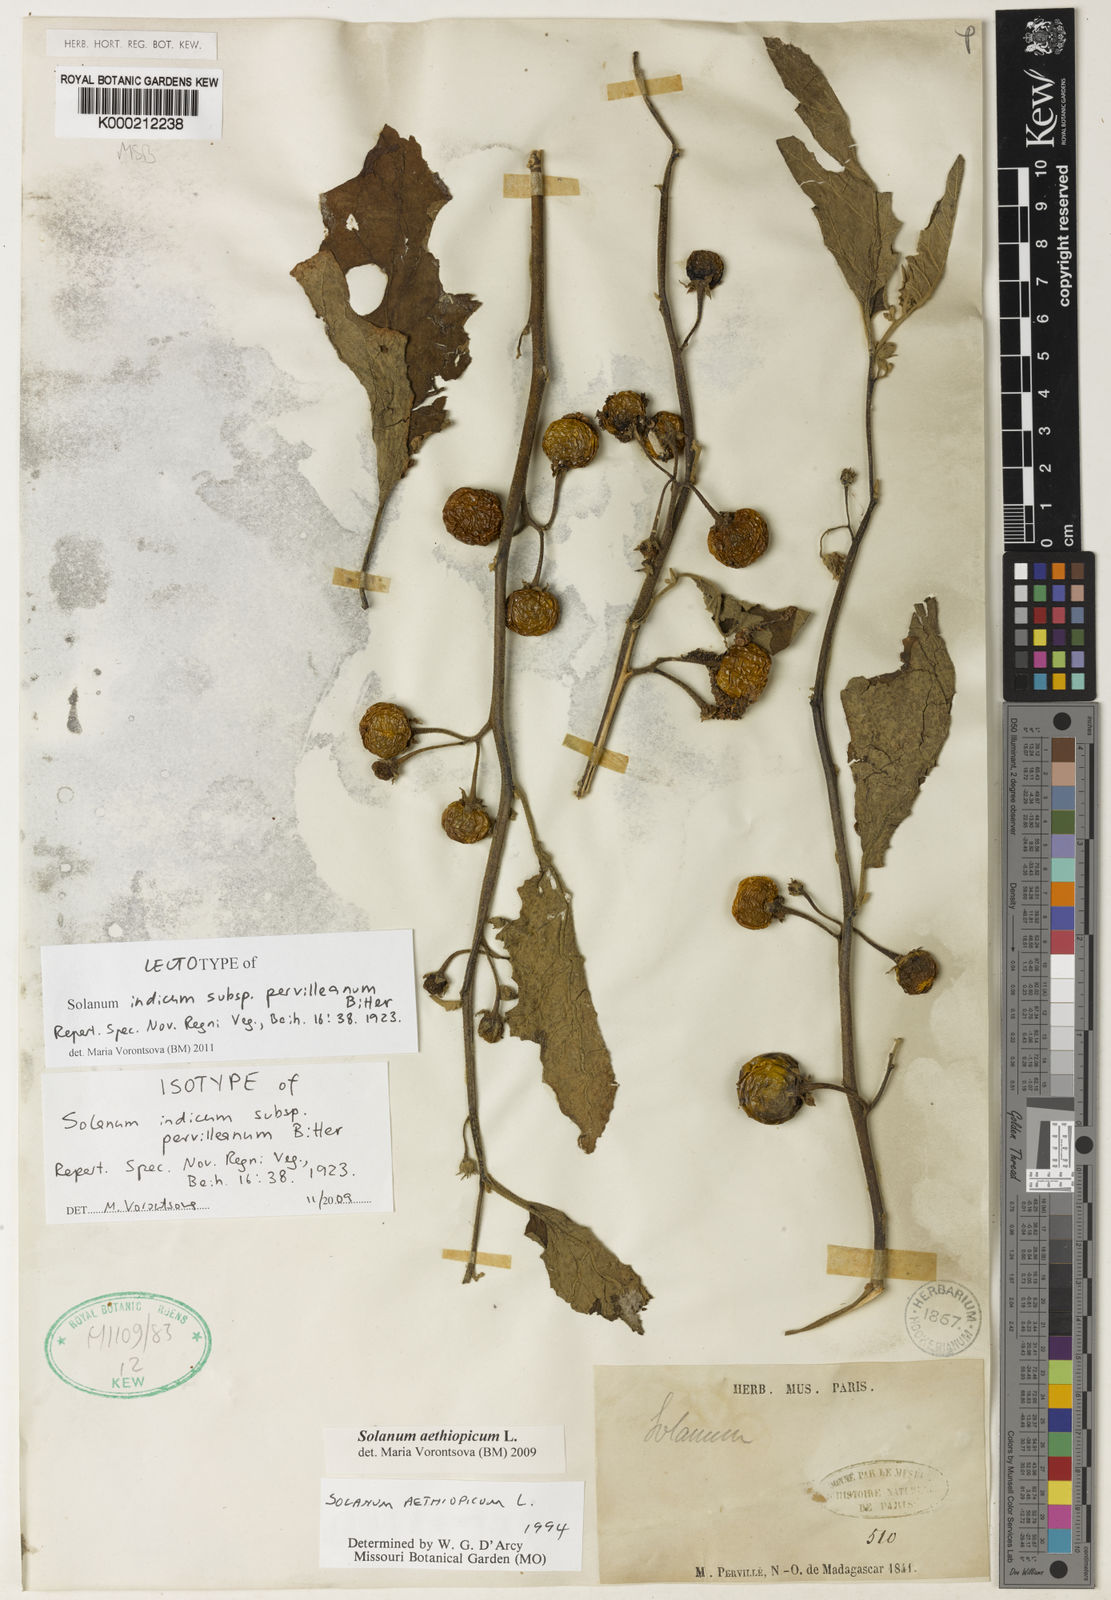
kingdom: Plantae
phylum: Tracheophyta
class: Magnoliopsida
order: Solanales
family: Solanaceae
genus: Solanum
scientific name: Solanum aethiopicum
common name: Gilo
